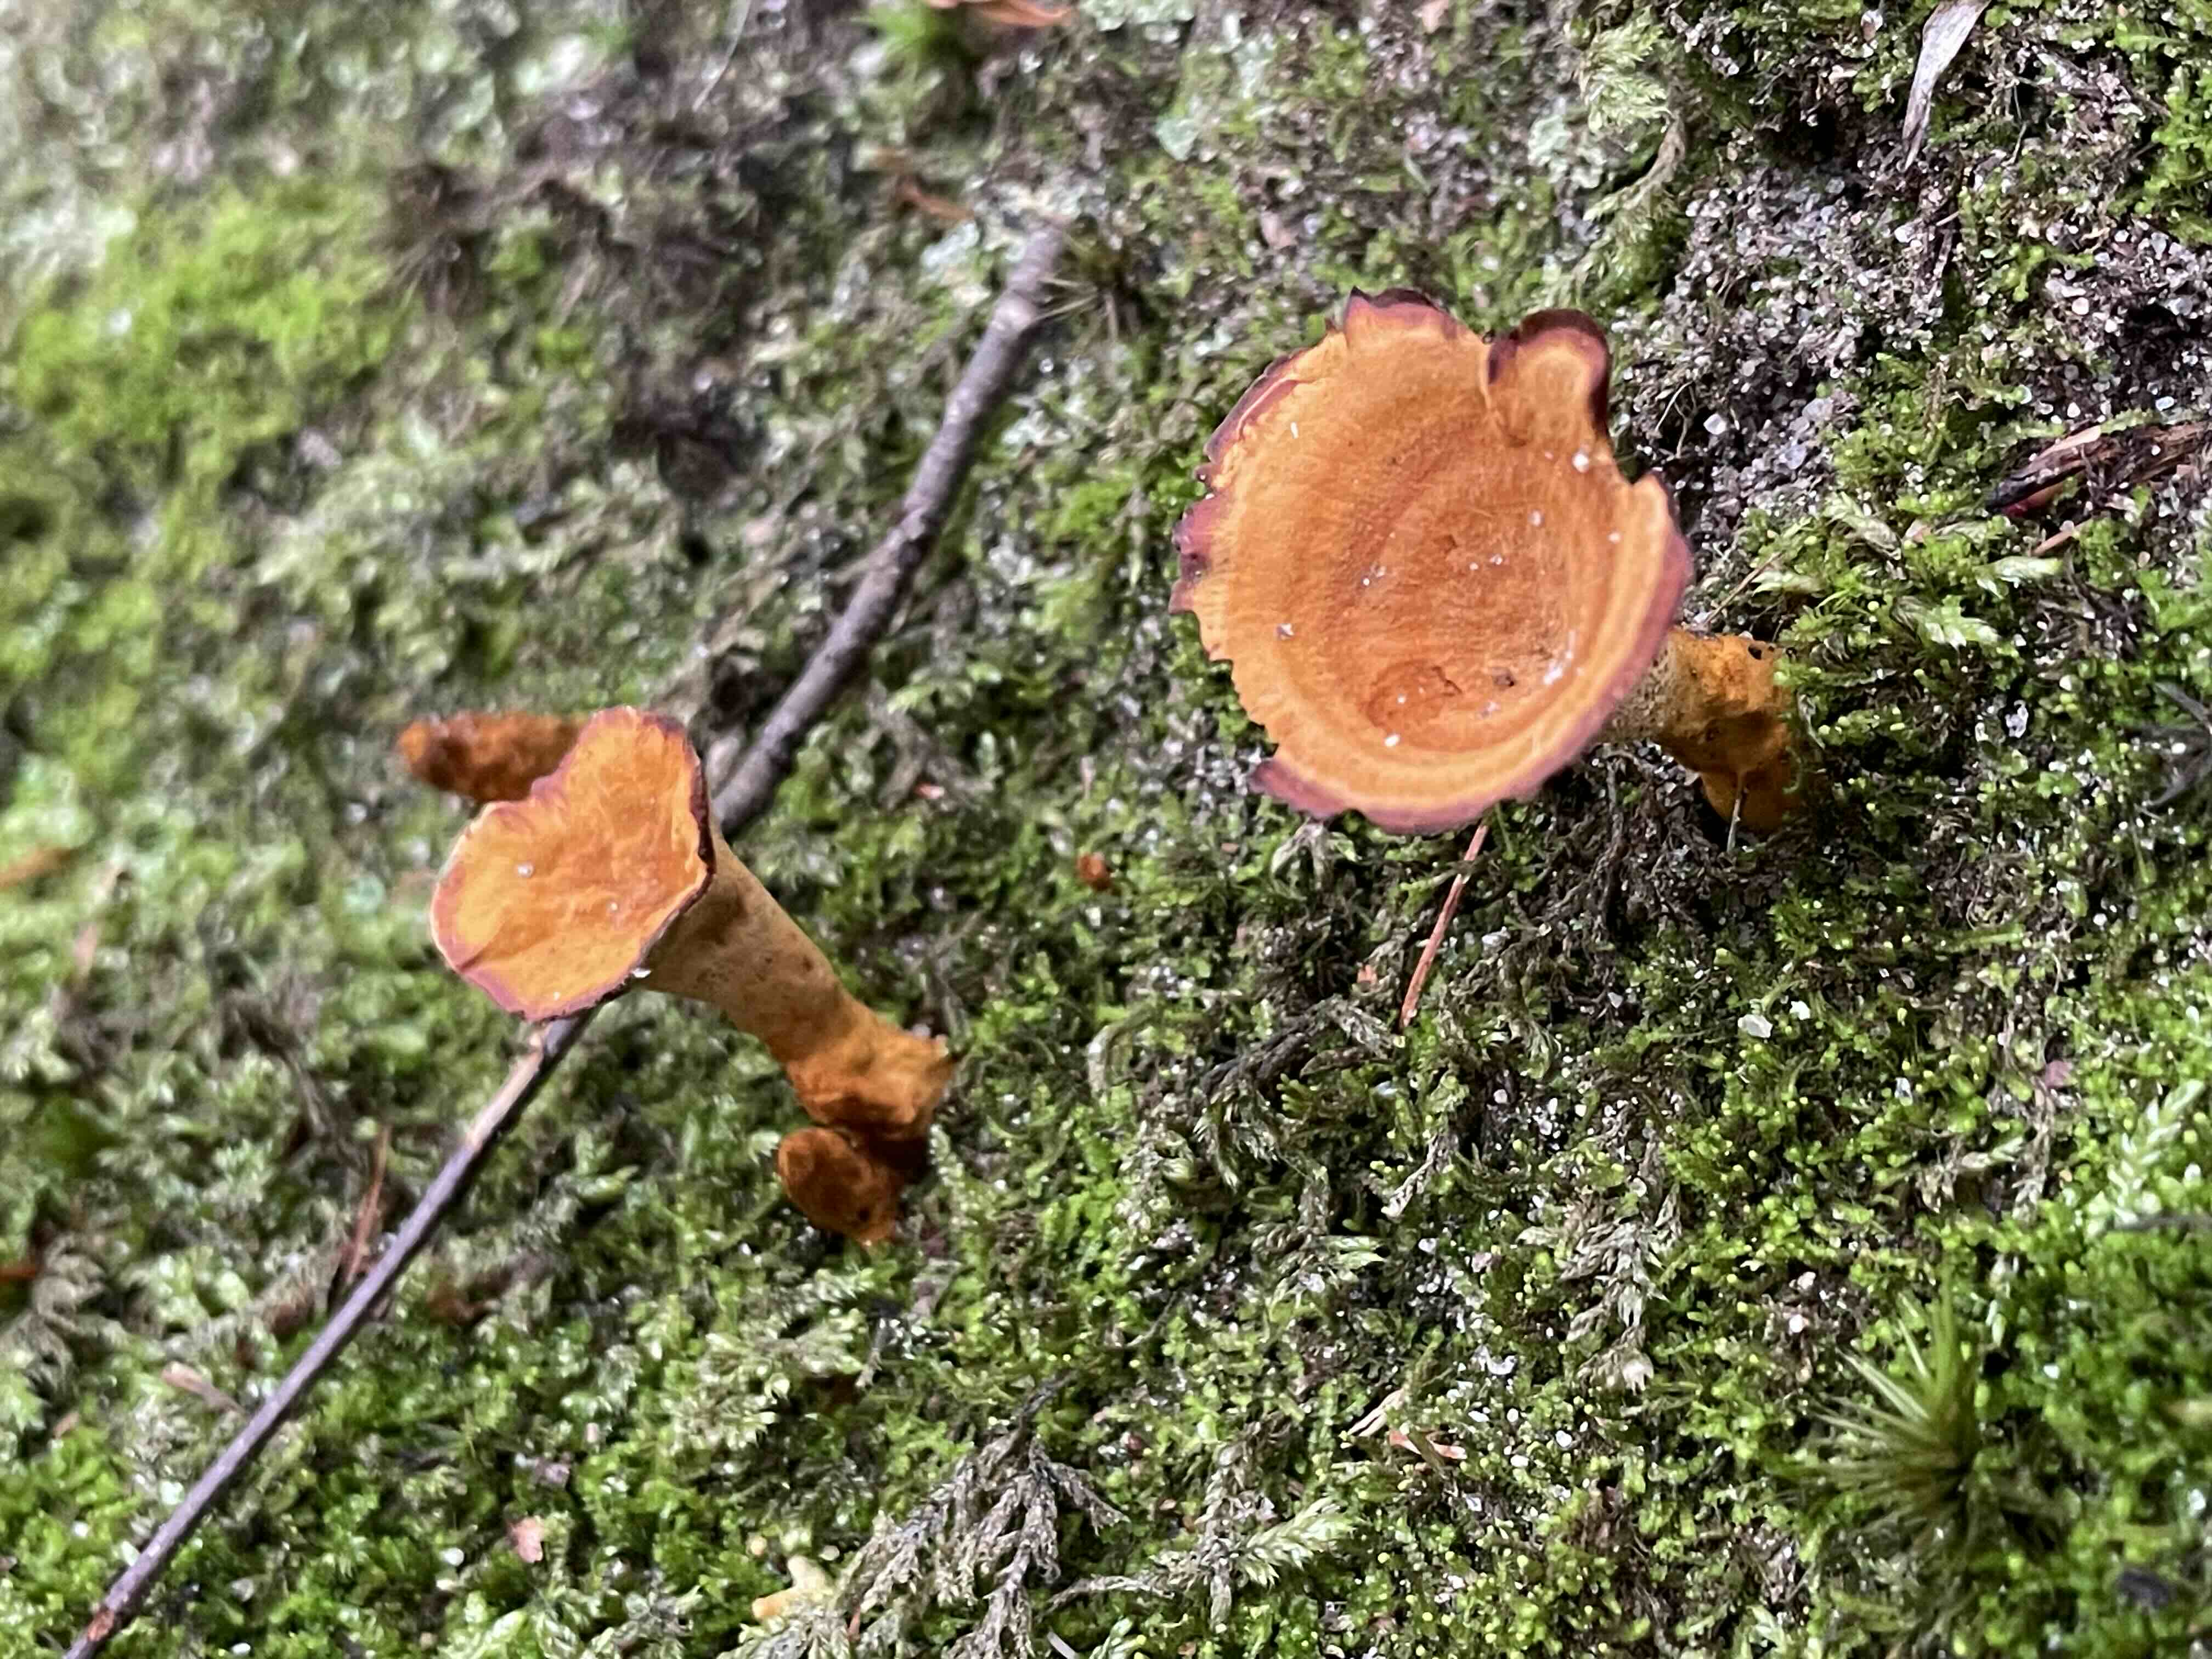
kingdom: Fungi
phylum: Basidiomycota
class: Agaricomycetes
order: Hymenochaetales
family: Hymenochaetaceae
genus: Coltricia
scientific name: Coltricia perennis
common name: almindelig sandporesvamp
